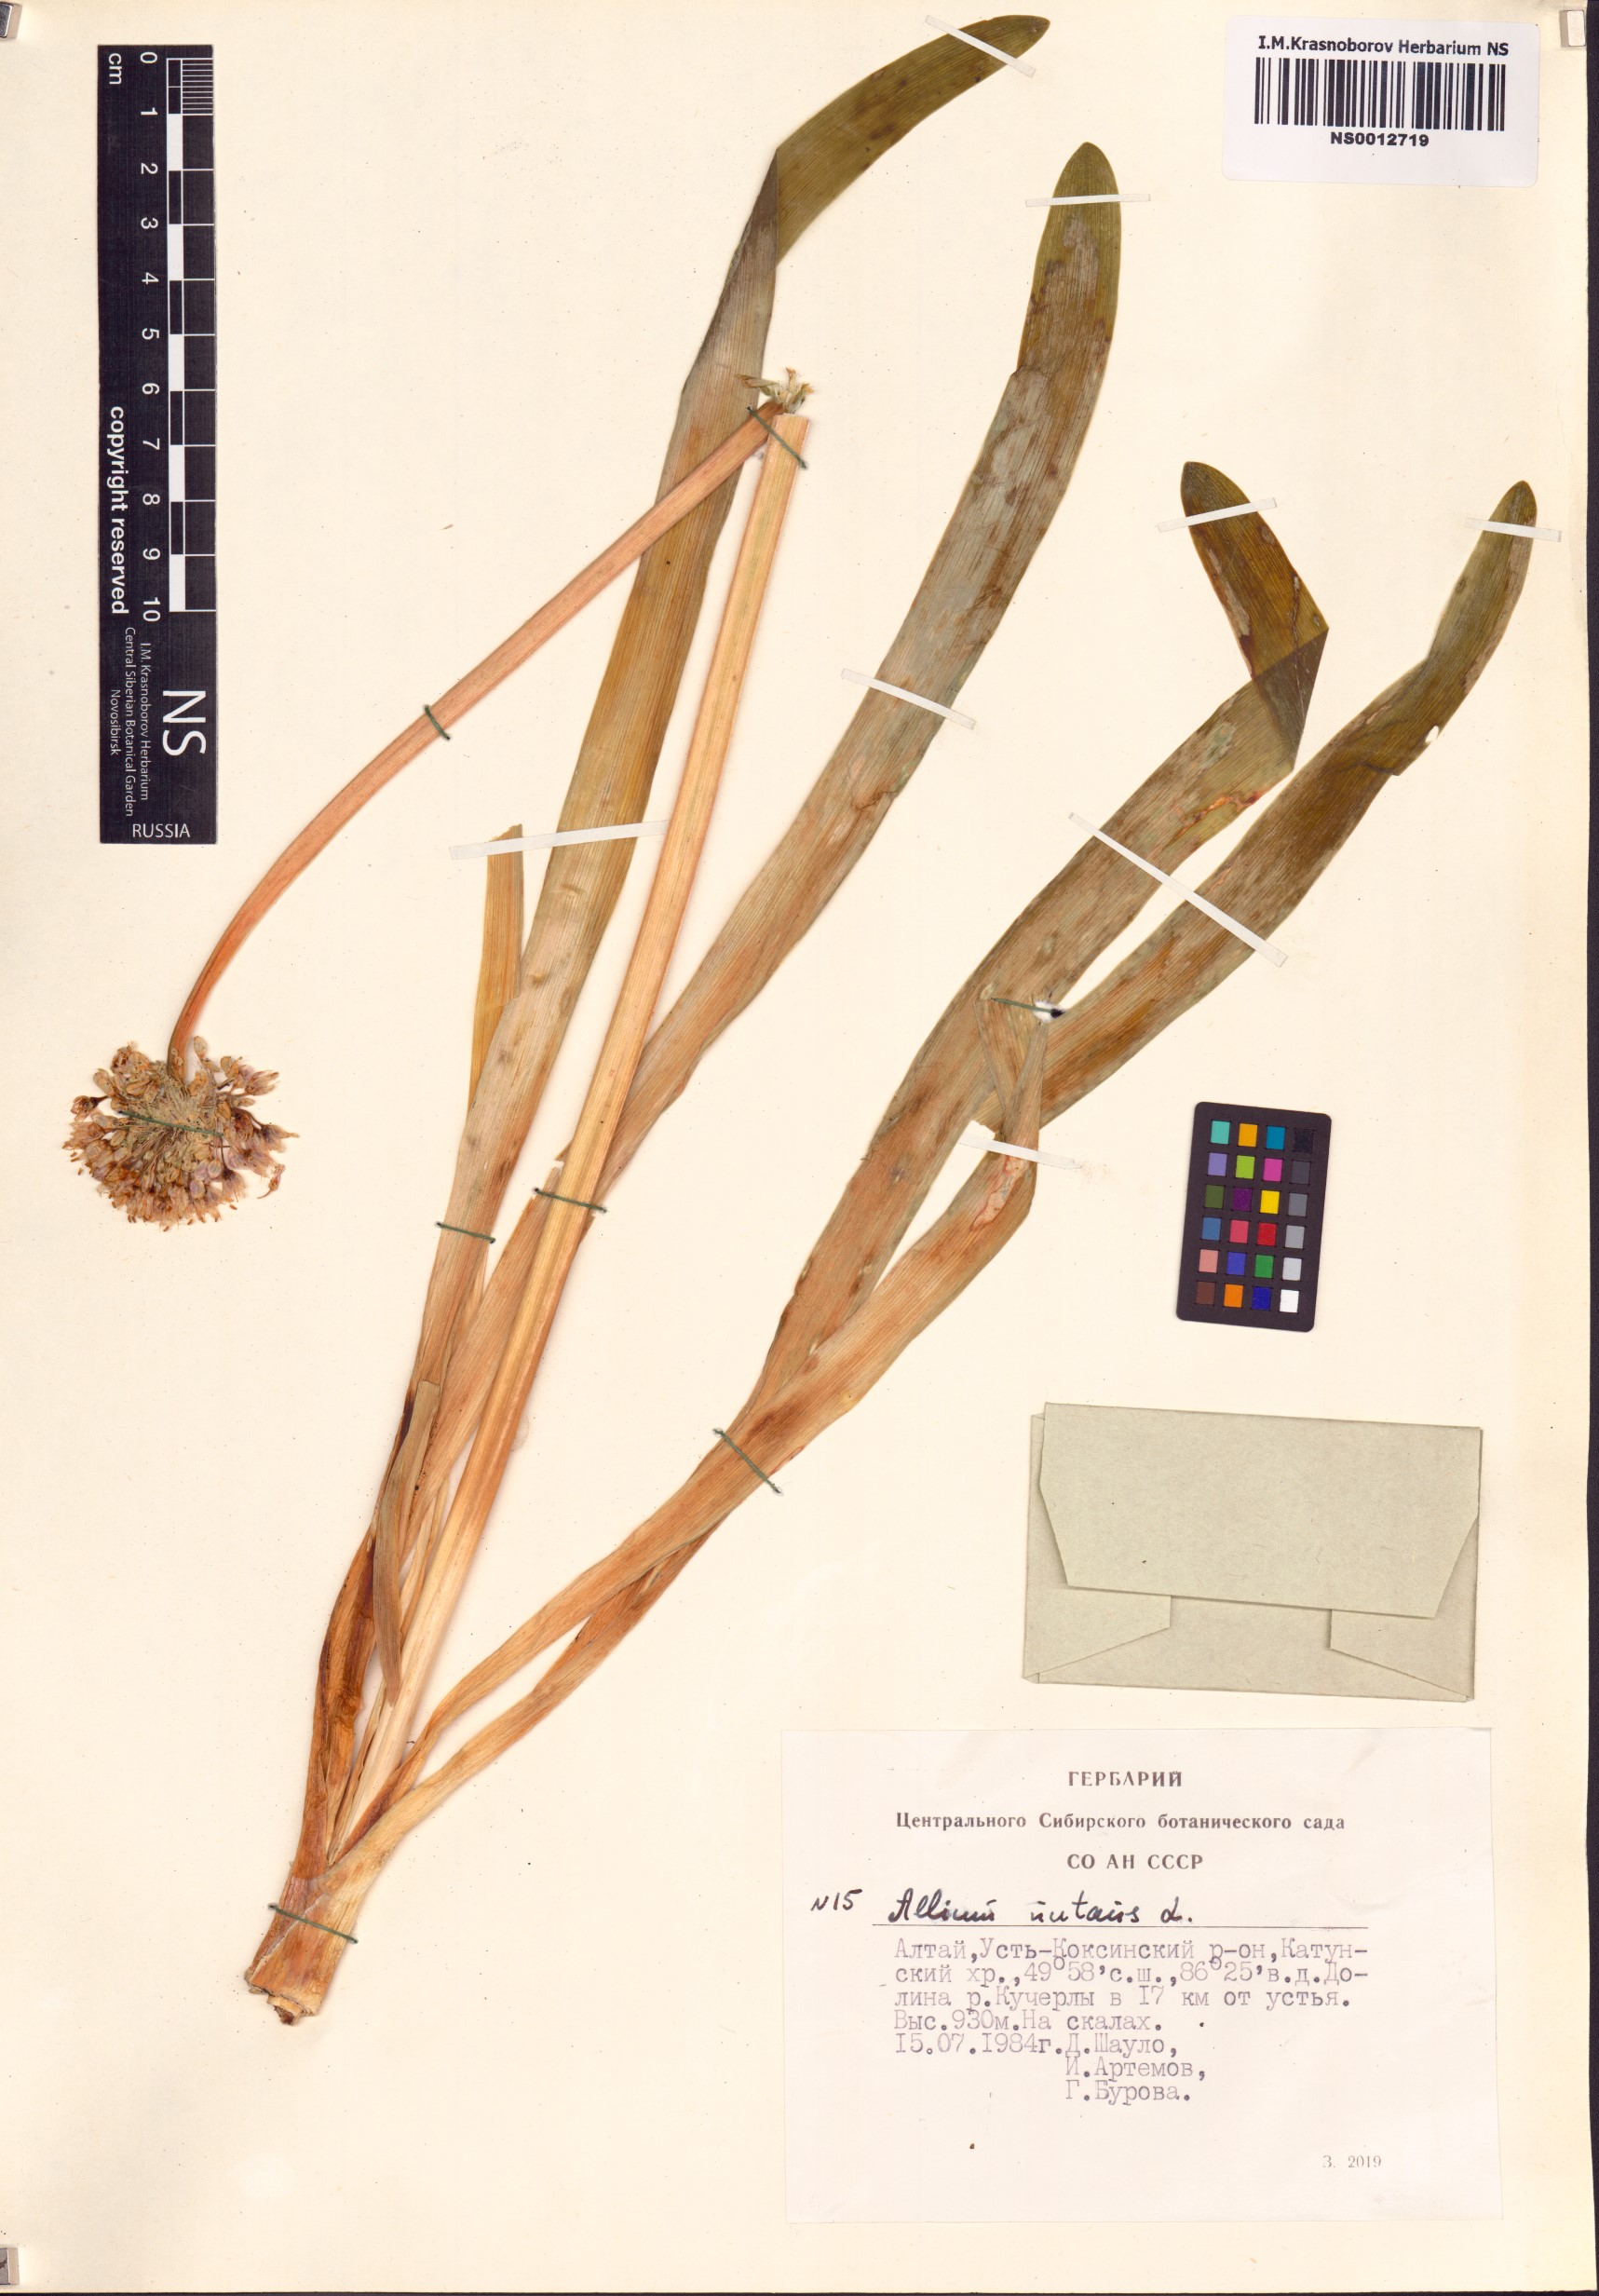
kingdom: Plantae
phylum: Tracheophyta
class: Liliopsida
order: Asparagales
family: Amaryllidaceae
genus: Allium
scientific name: Allium nutans
